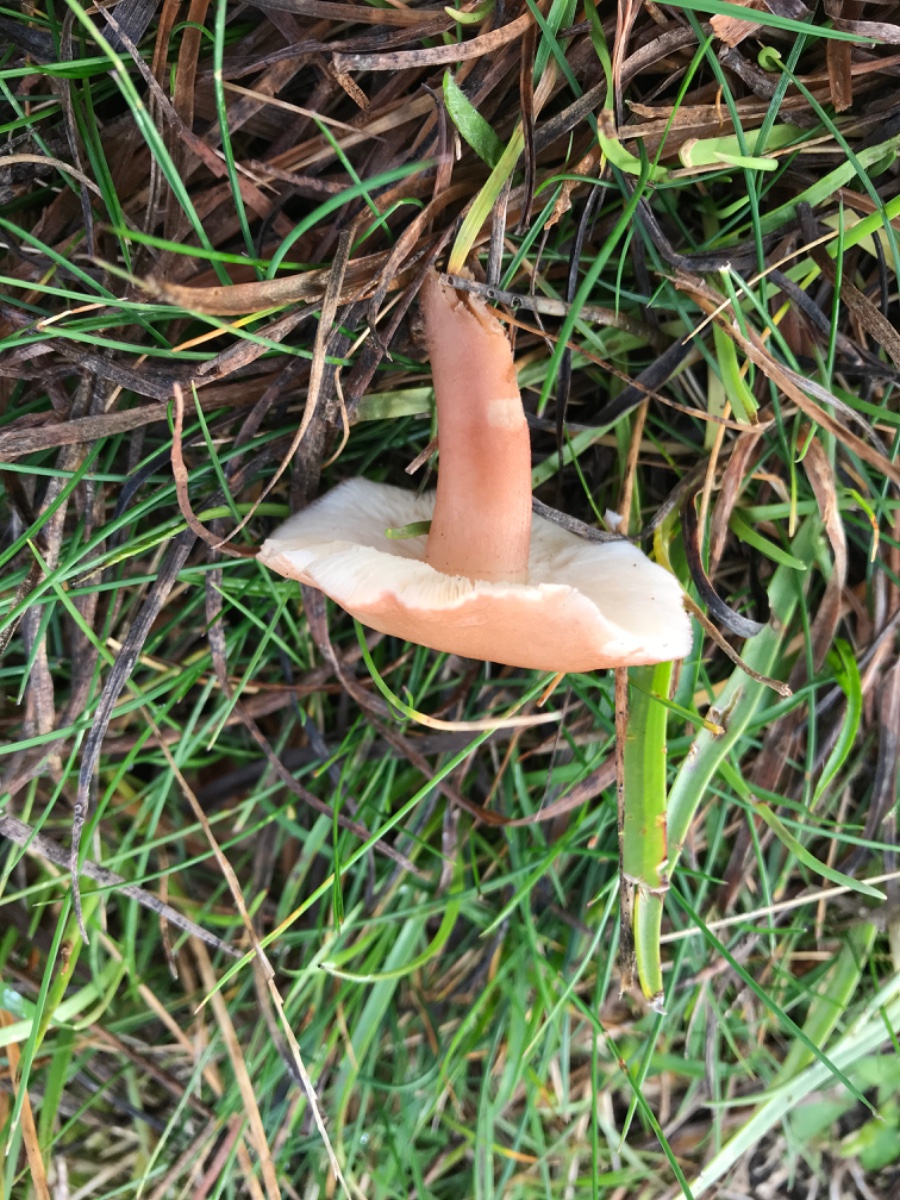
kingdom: Fungi
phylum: Basidiomycota
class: Agaricomycetes
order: Agaricales
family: Lyophyllaceae
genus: Calocybe
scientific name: Calocybe carnea
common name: rosa fagerhat
